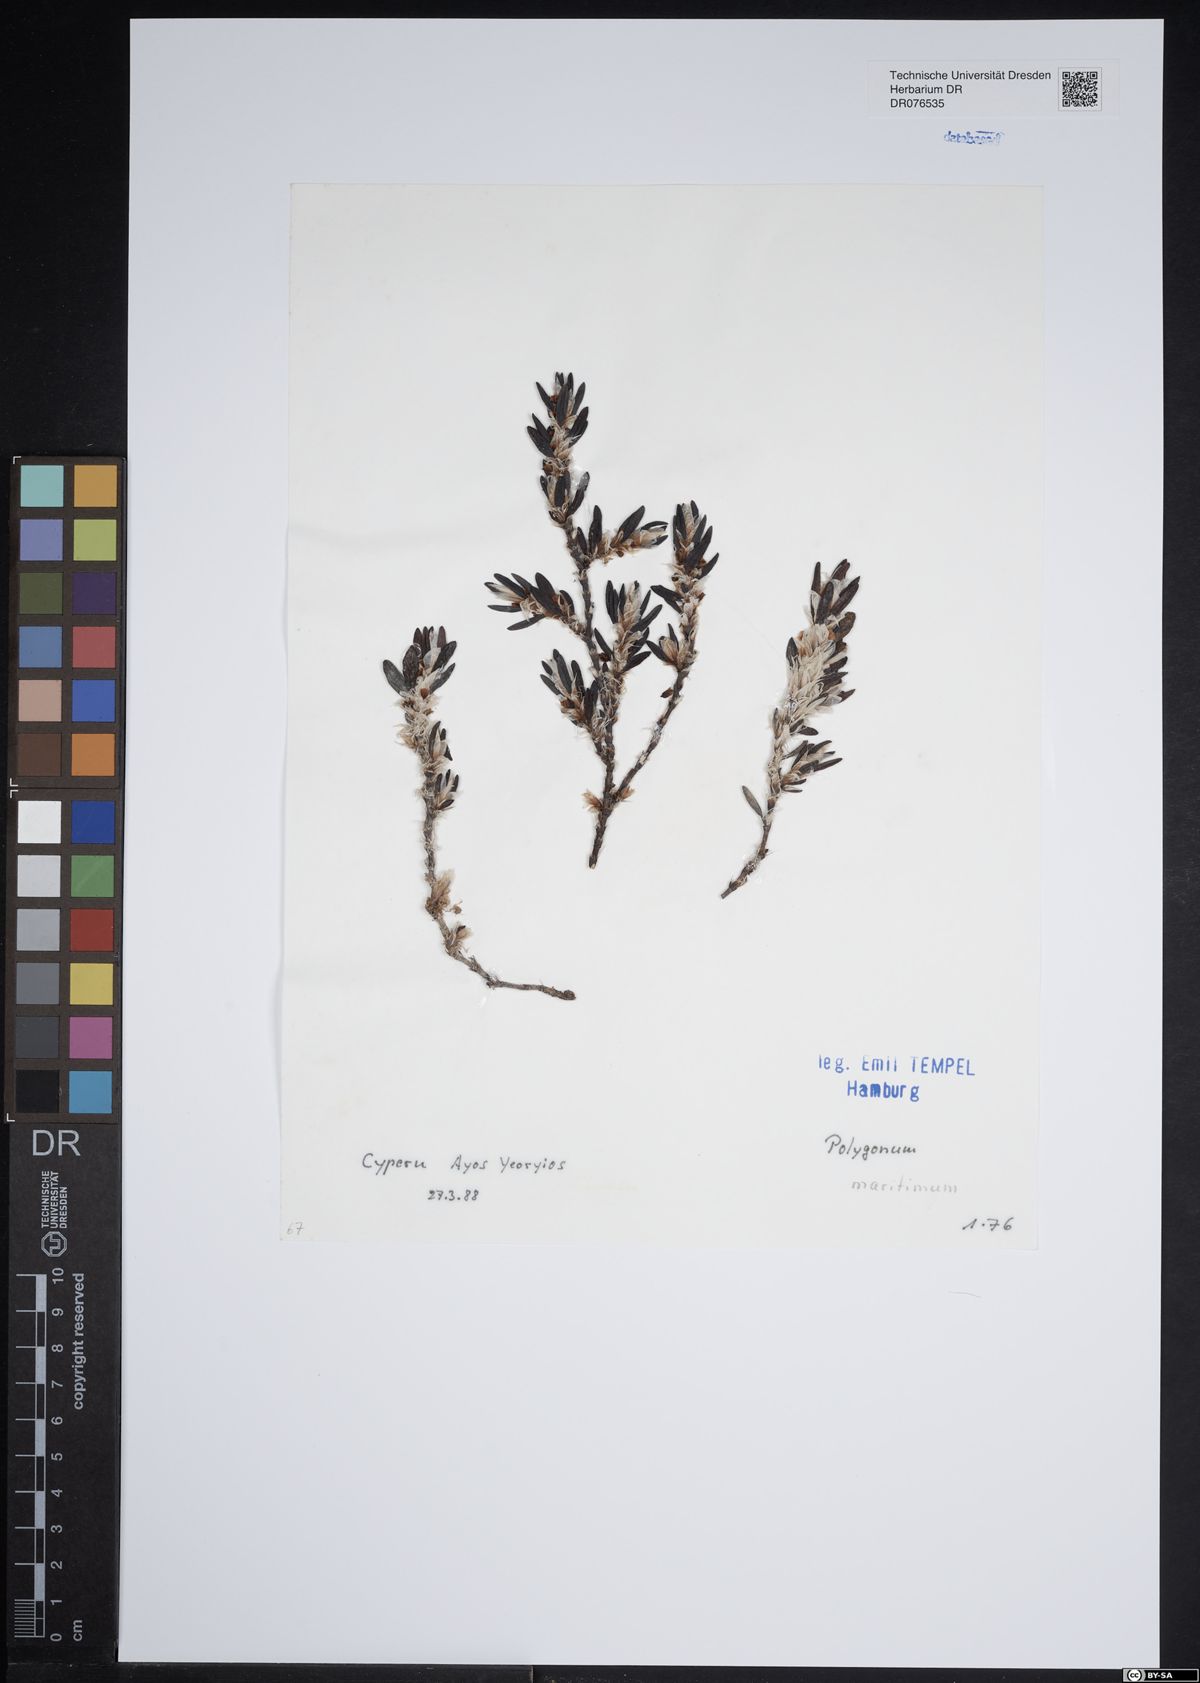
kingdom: Plantae
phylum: Tracheophyta
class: Magnoliopsida
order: Caryophyllales
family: Polygonaceae
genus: Polygonum
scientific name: Polygonum maritimum
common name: Sea knotgrass
